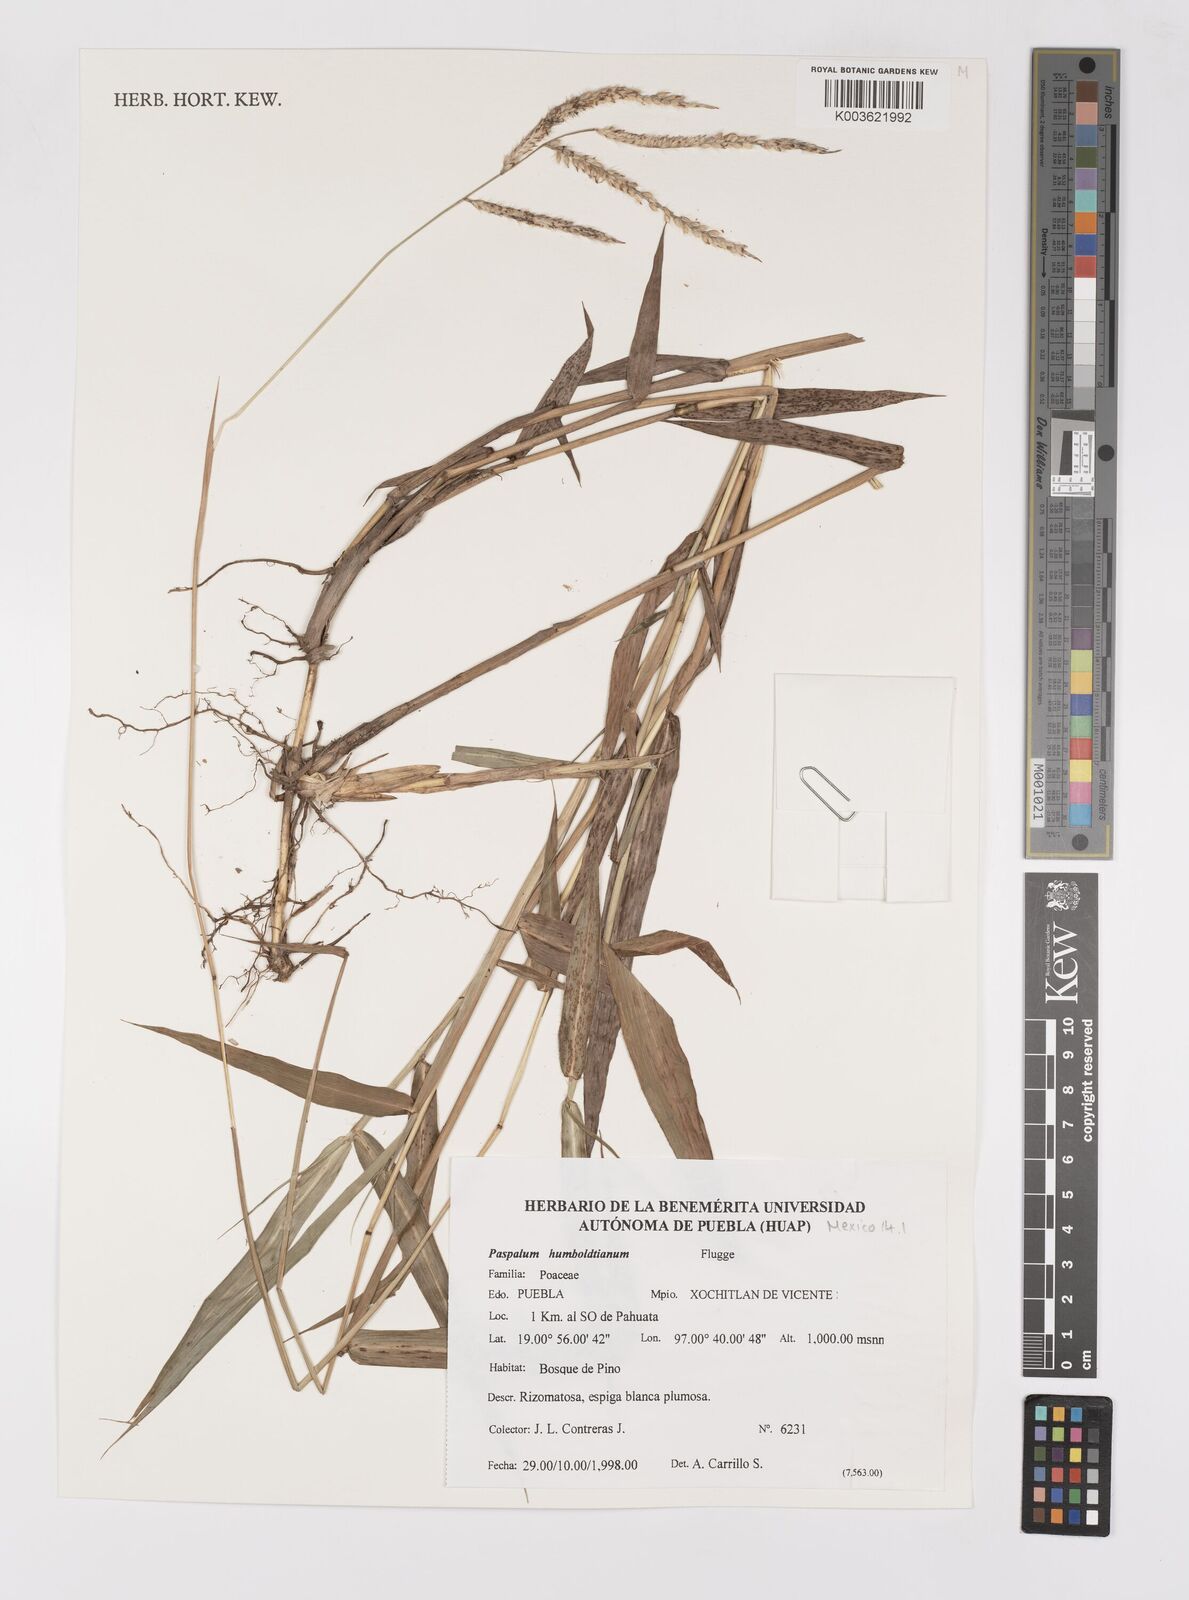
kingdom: Plantae
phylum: Tracheophyta
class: Liliopsida
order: Poales
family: Poaceae
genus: Paspalum
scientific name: Paspalum humboldtianum
